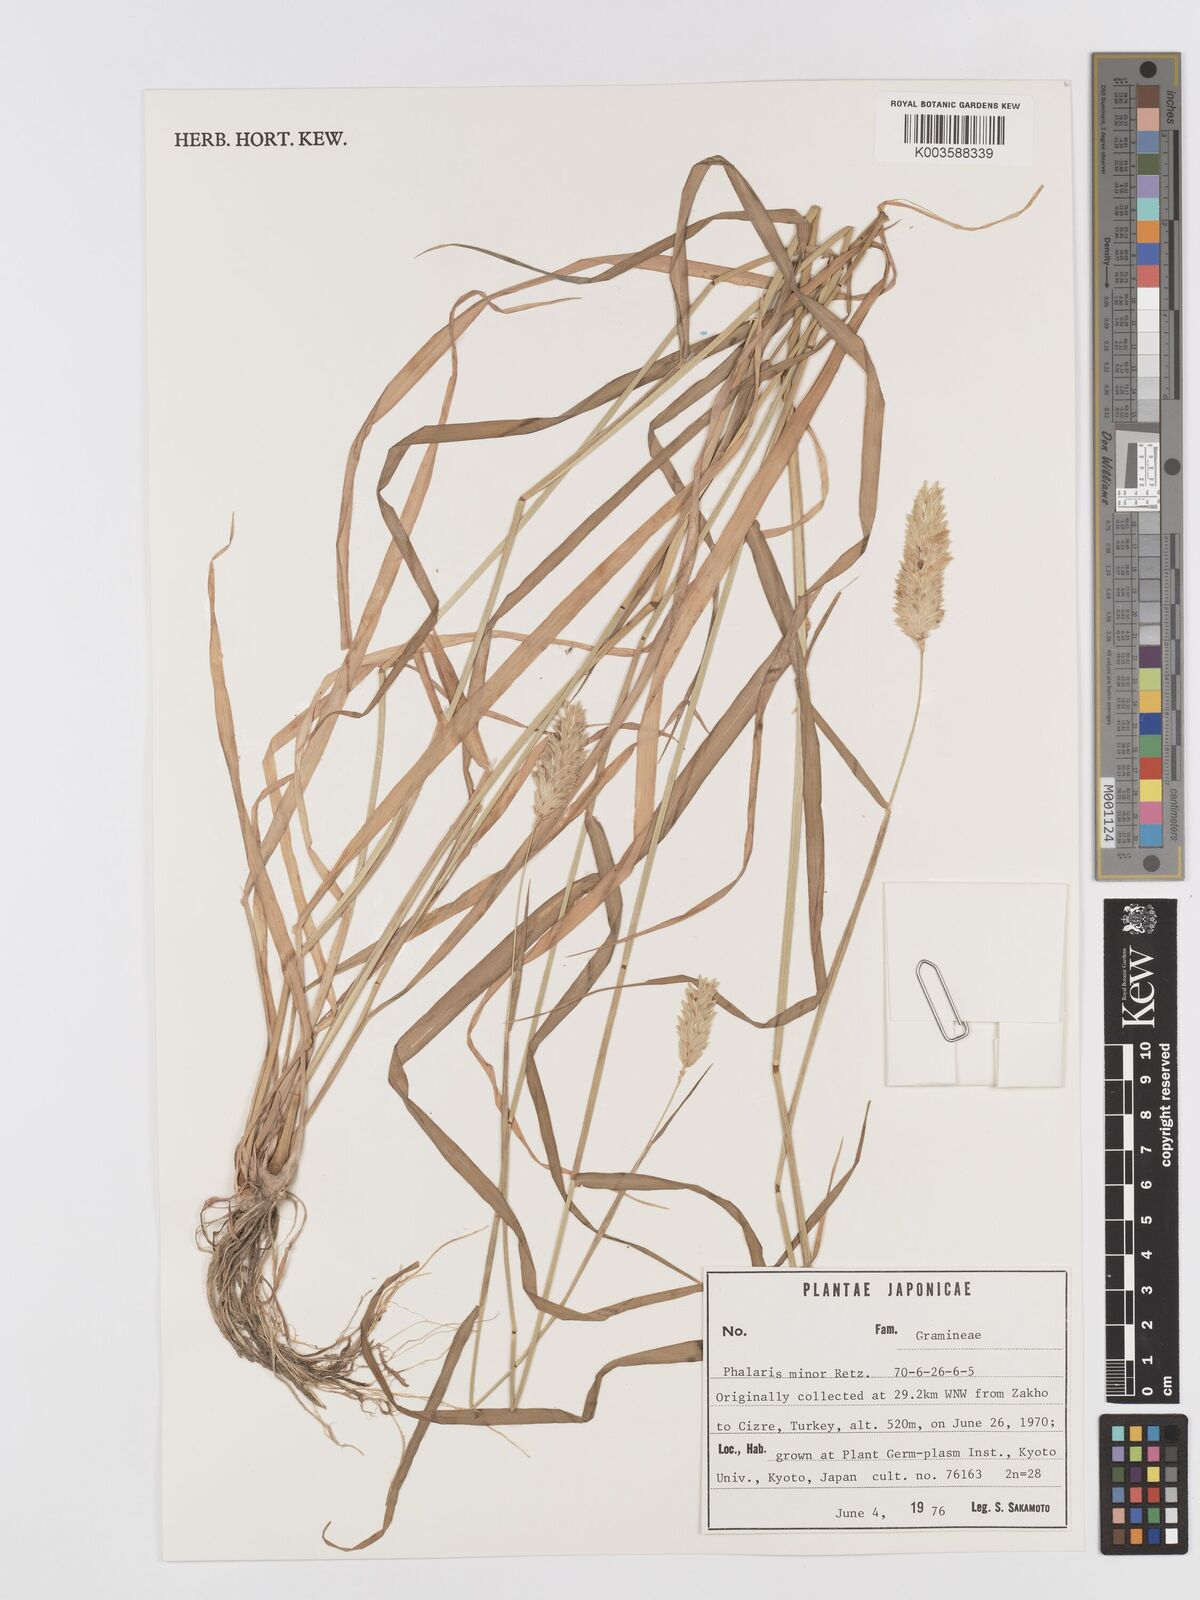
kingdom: Plantae
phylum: Tracheophyta
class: Liliopsida
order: Poales
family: Poaceae
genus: Phalaris
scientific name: Phalaris minor
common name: Littleseed canarygrass
